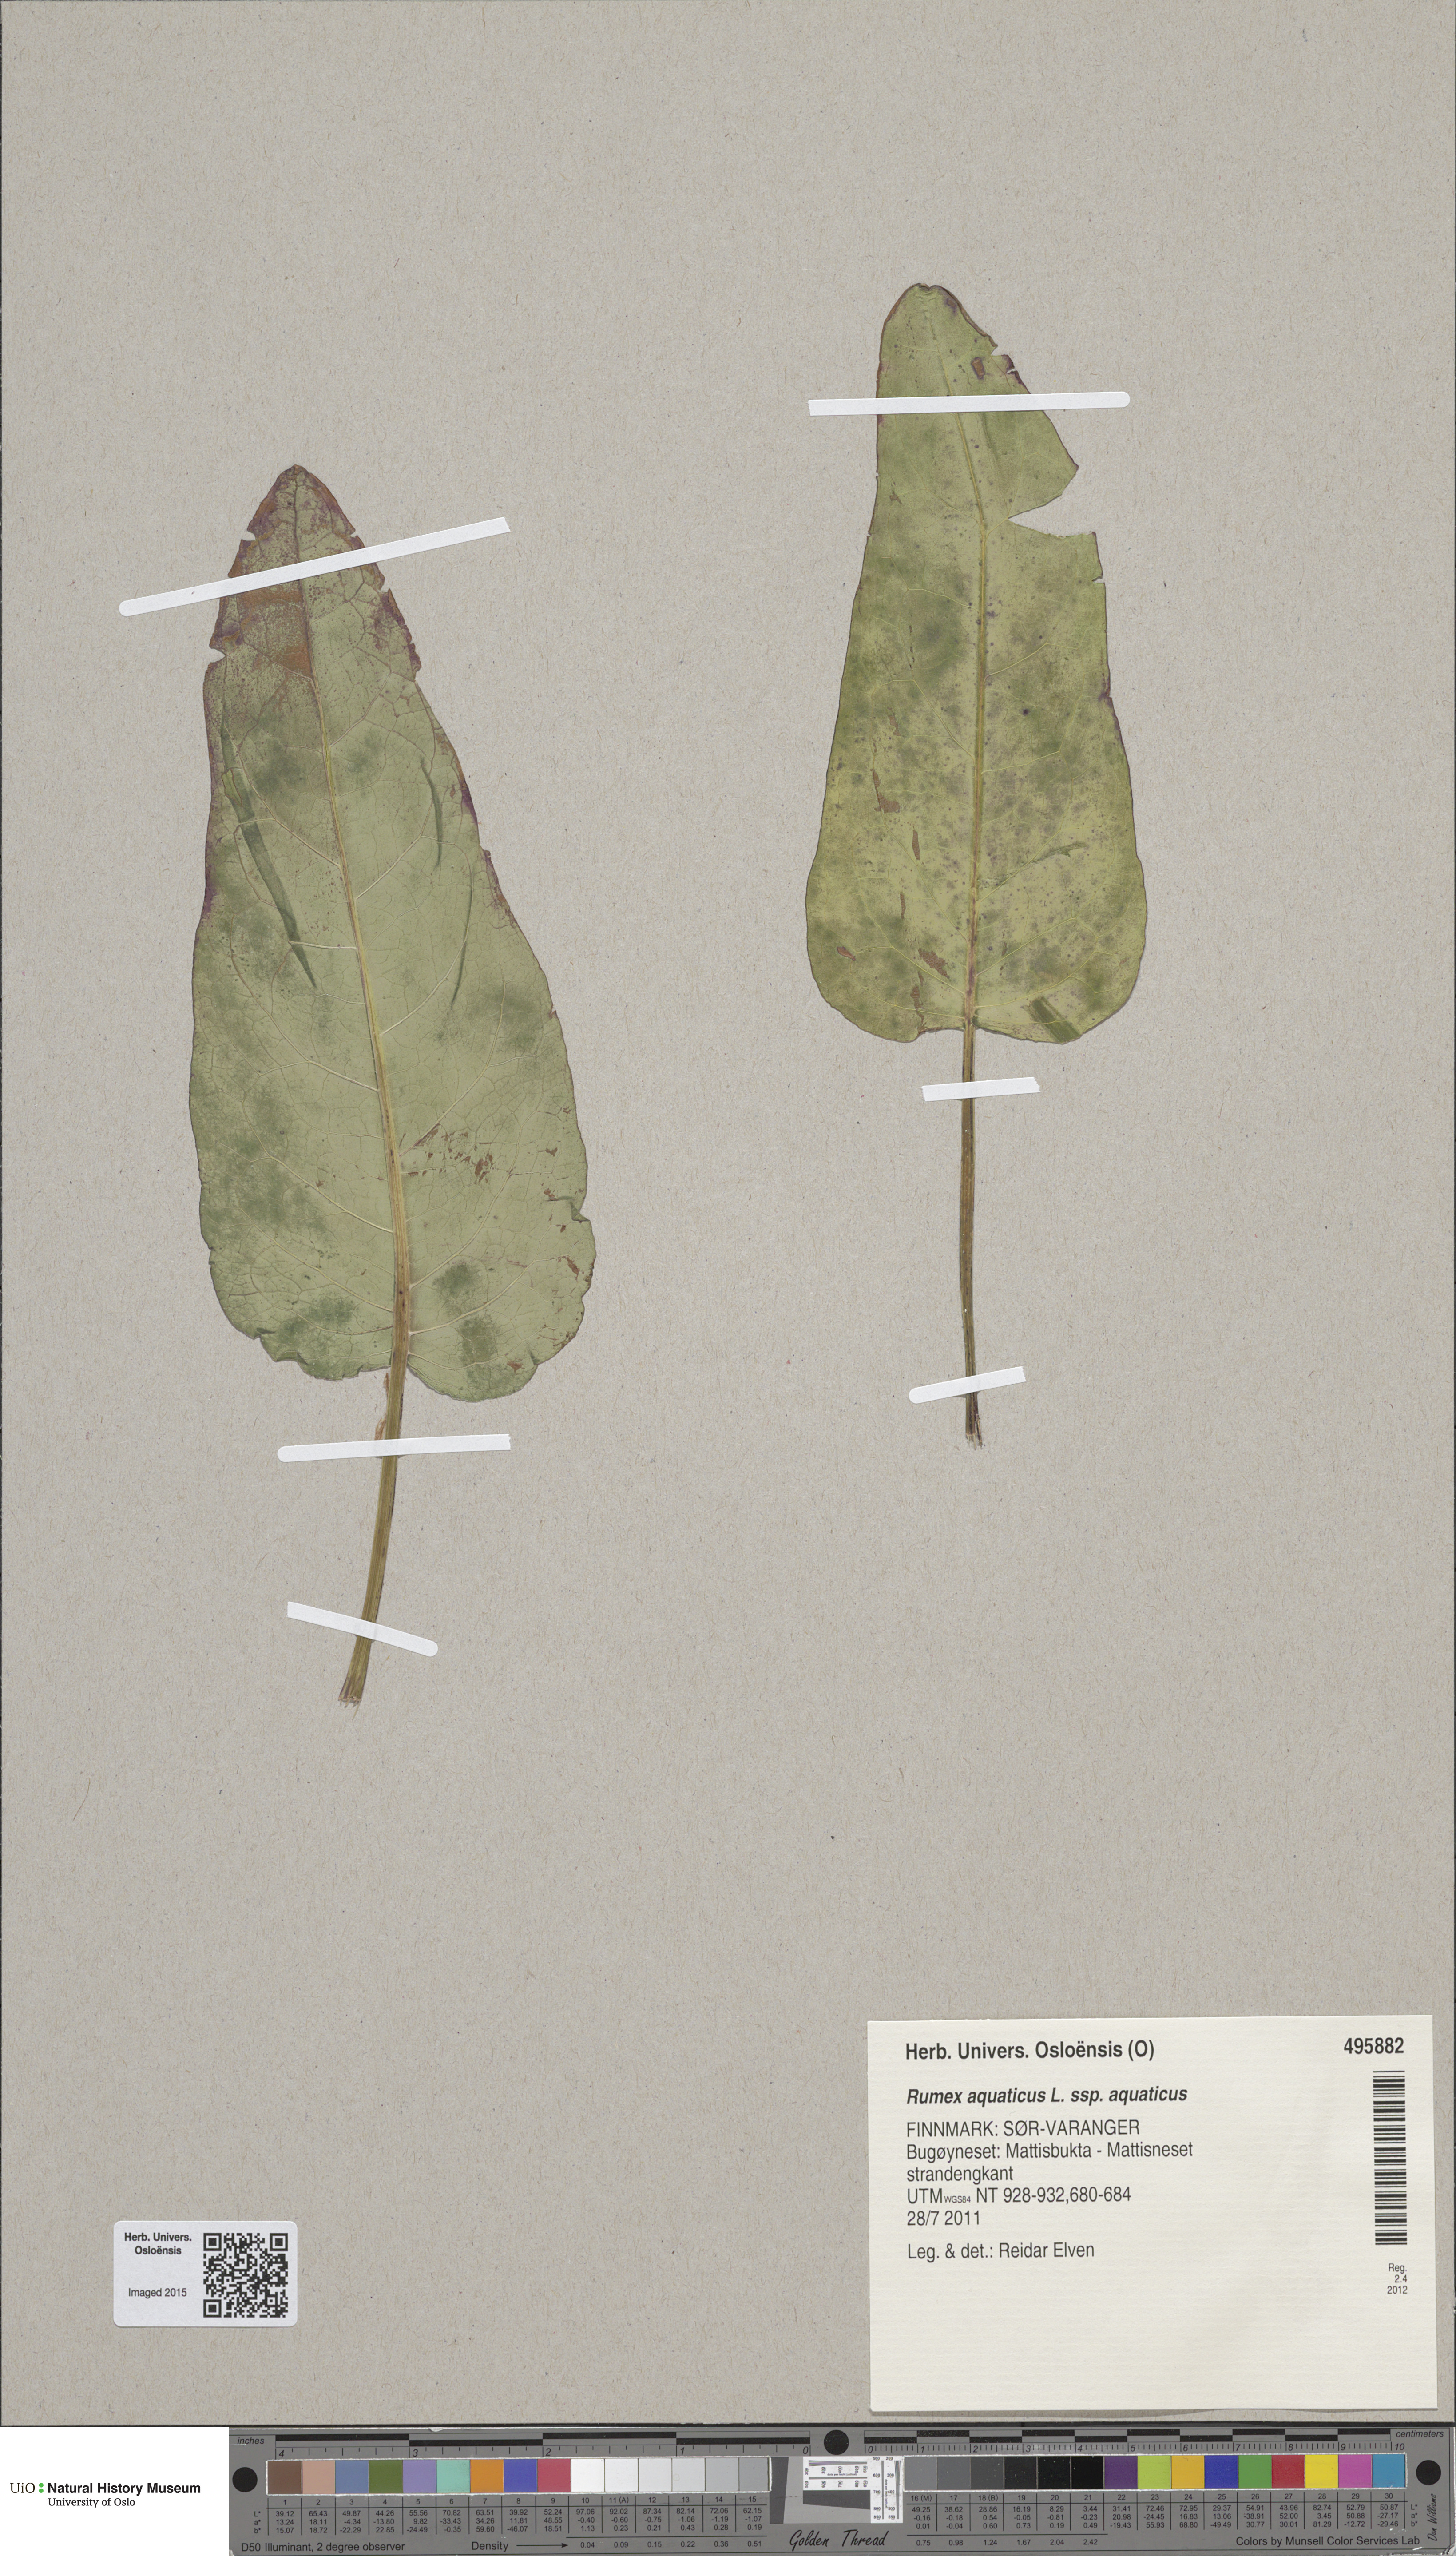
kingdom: Plantae
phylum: Tracheophyta
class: Magnoliopsida
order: Caryophyllales
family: Polygonaceae
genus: Rumex
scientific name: Rumex aquaticus
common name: Scottish dock
